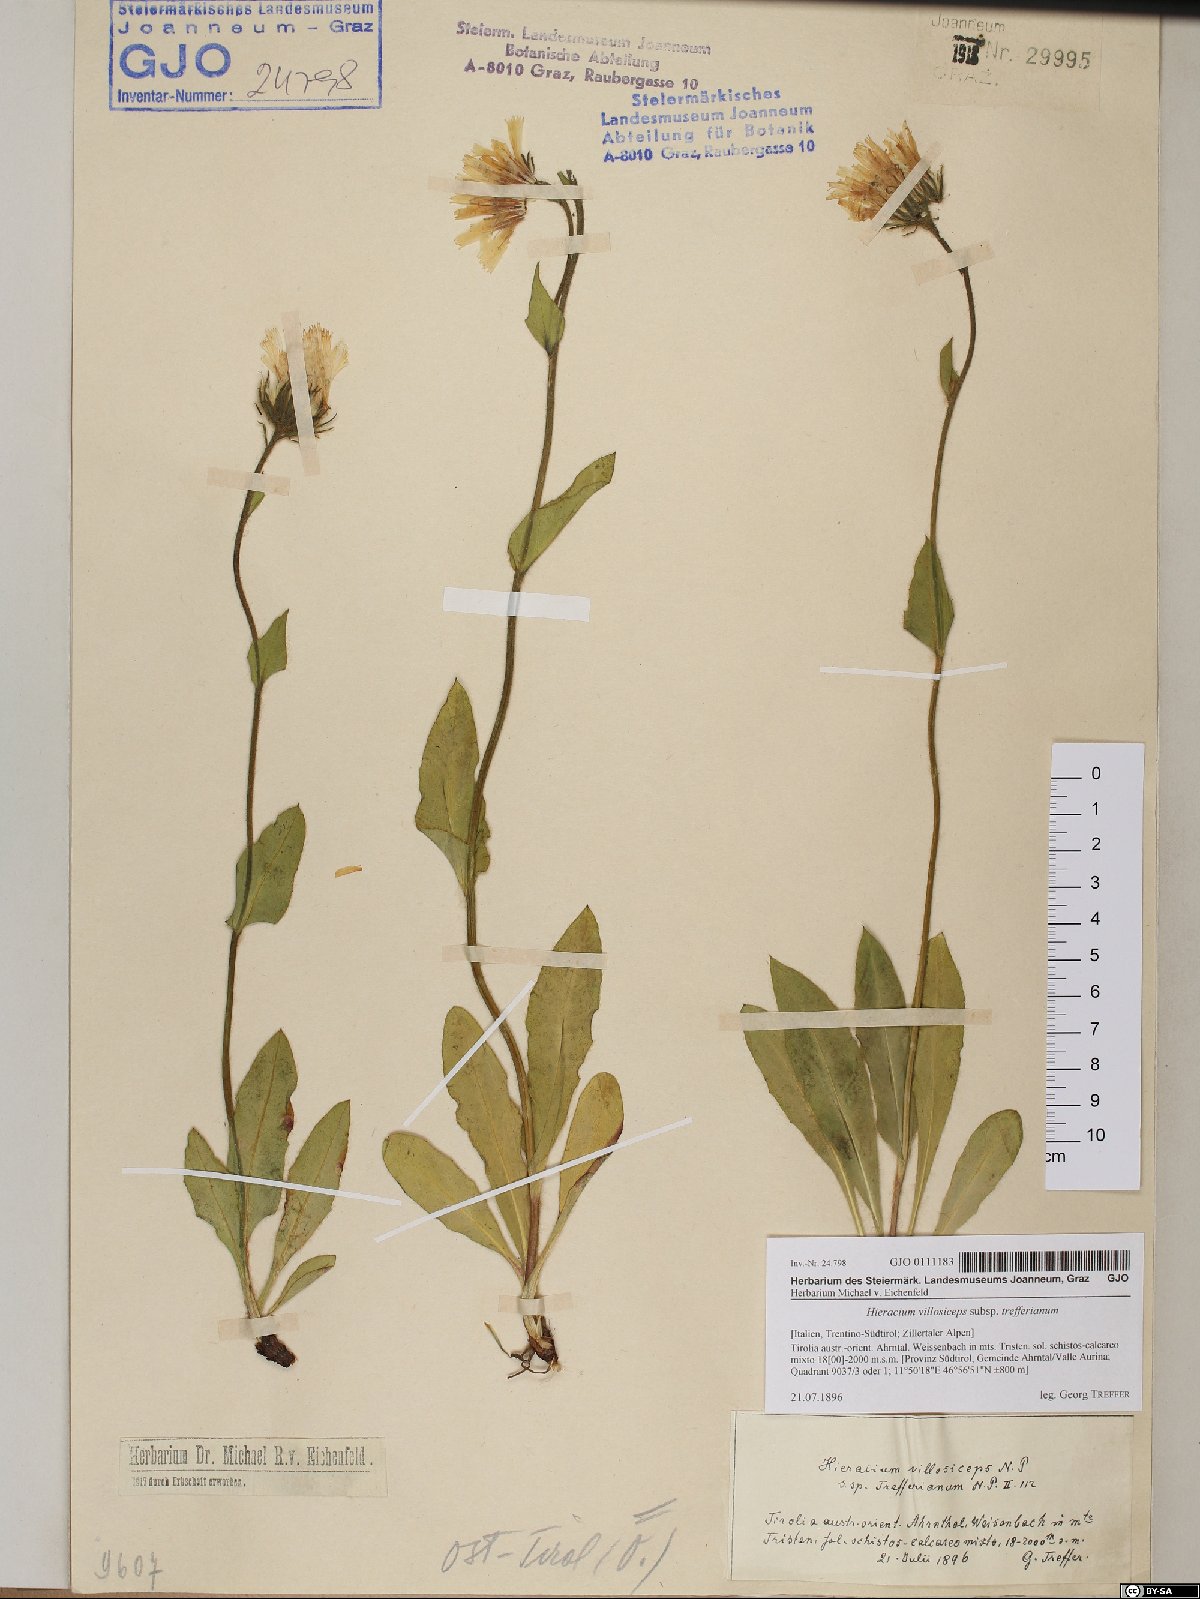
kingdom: Plantae
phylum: Tracheophyta
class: Magnoliopsida
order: Asterales
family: Asteraceae
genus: Hieracium
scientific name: Hieracium dentatum
